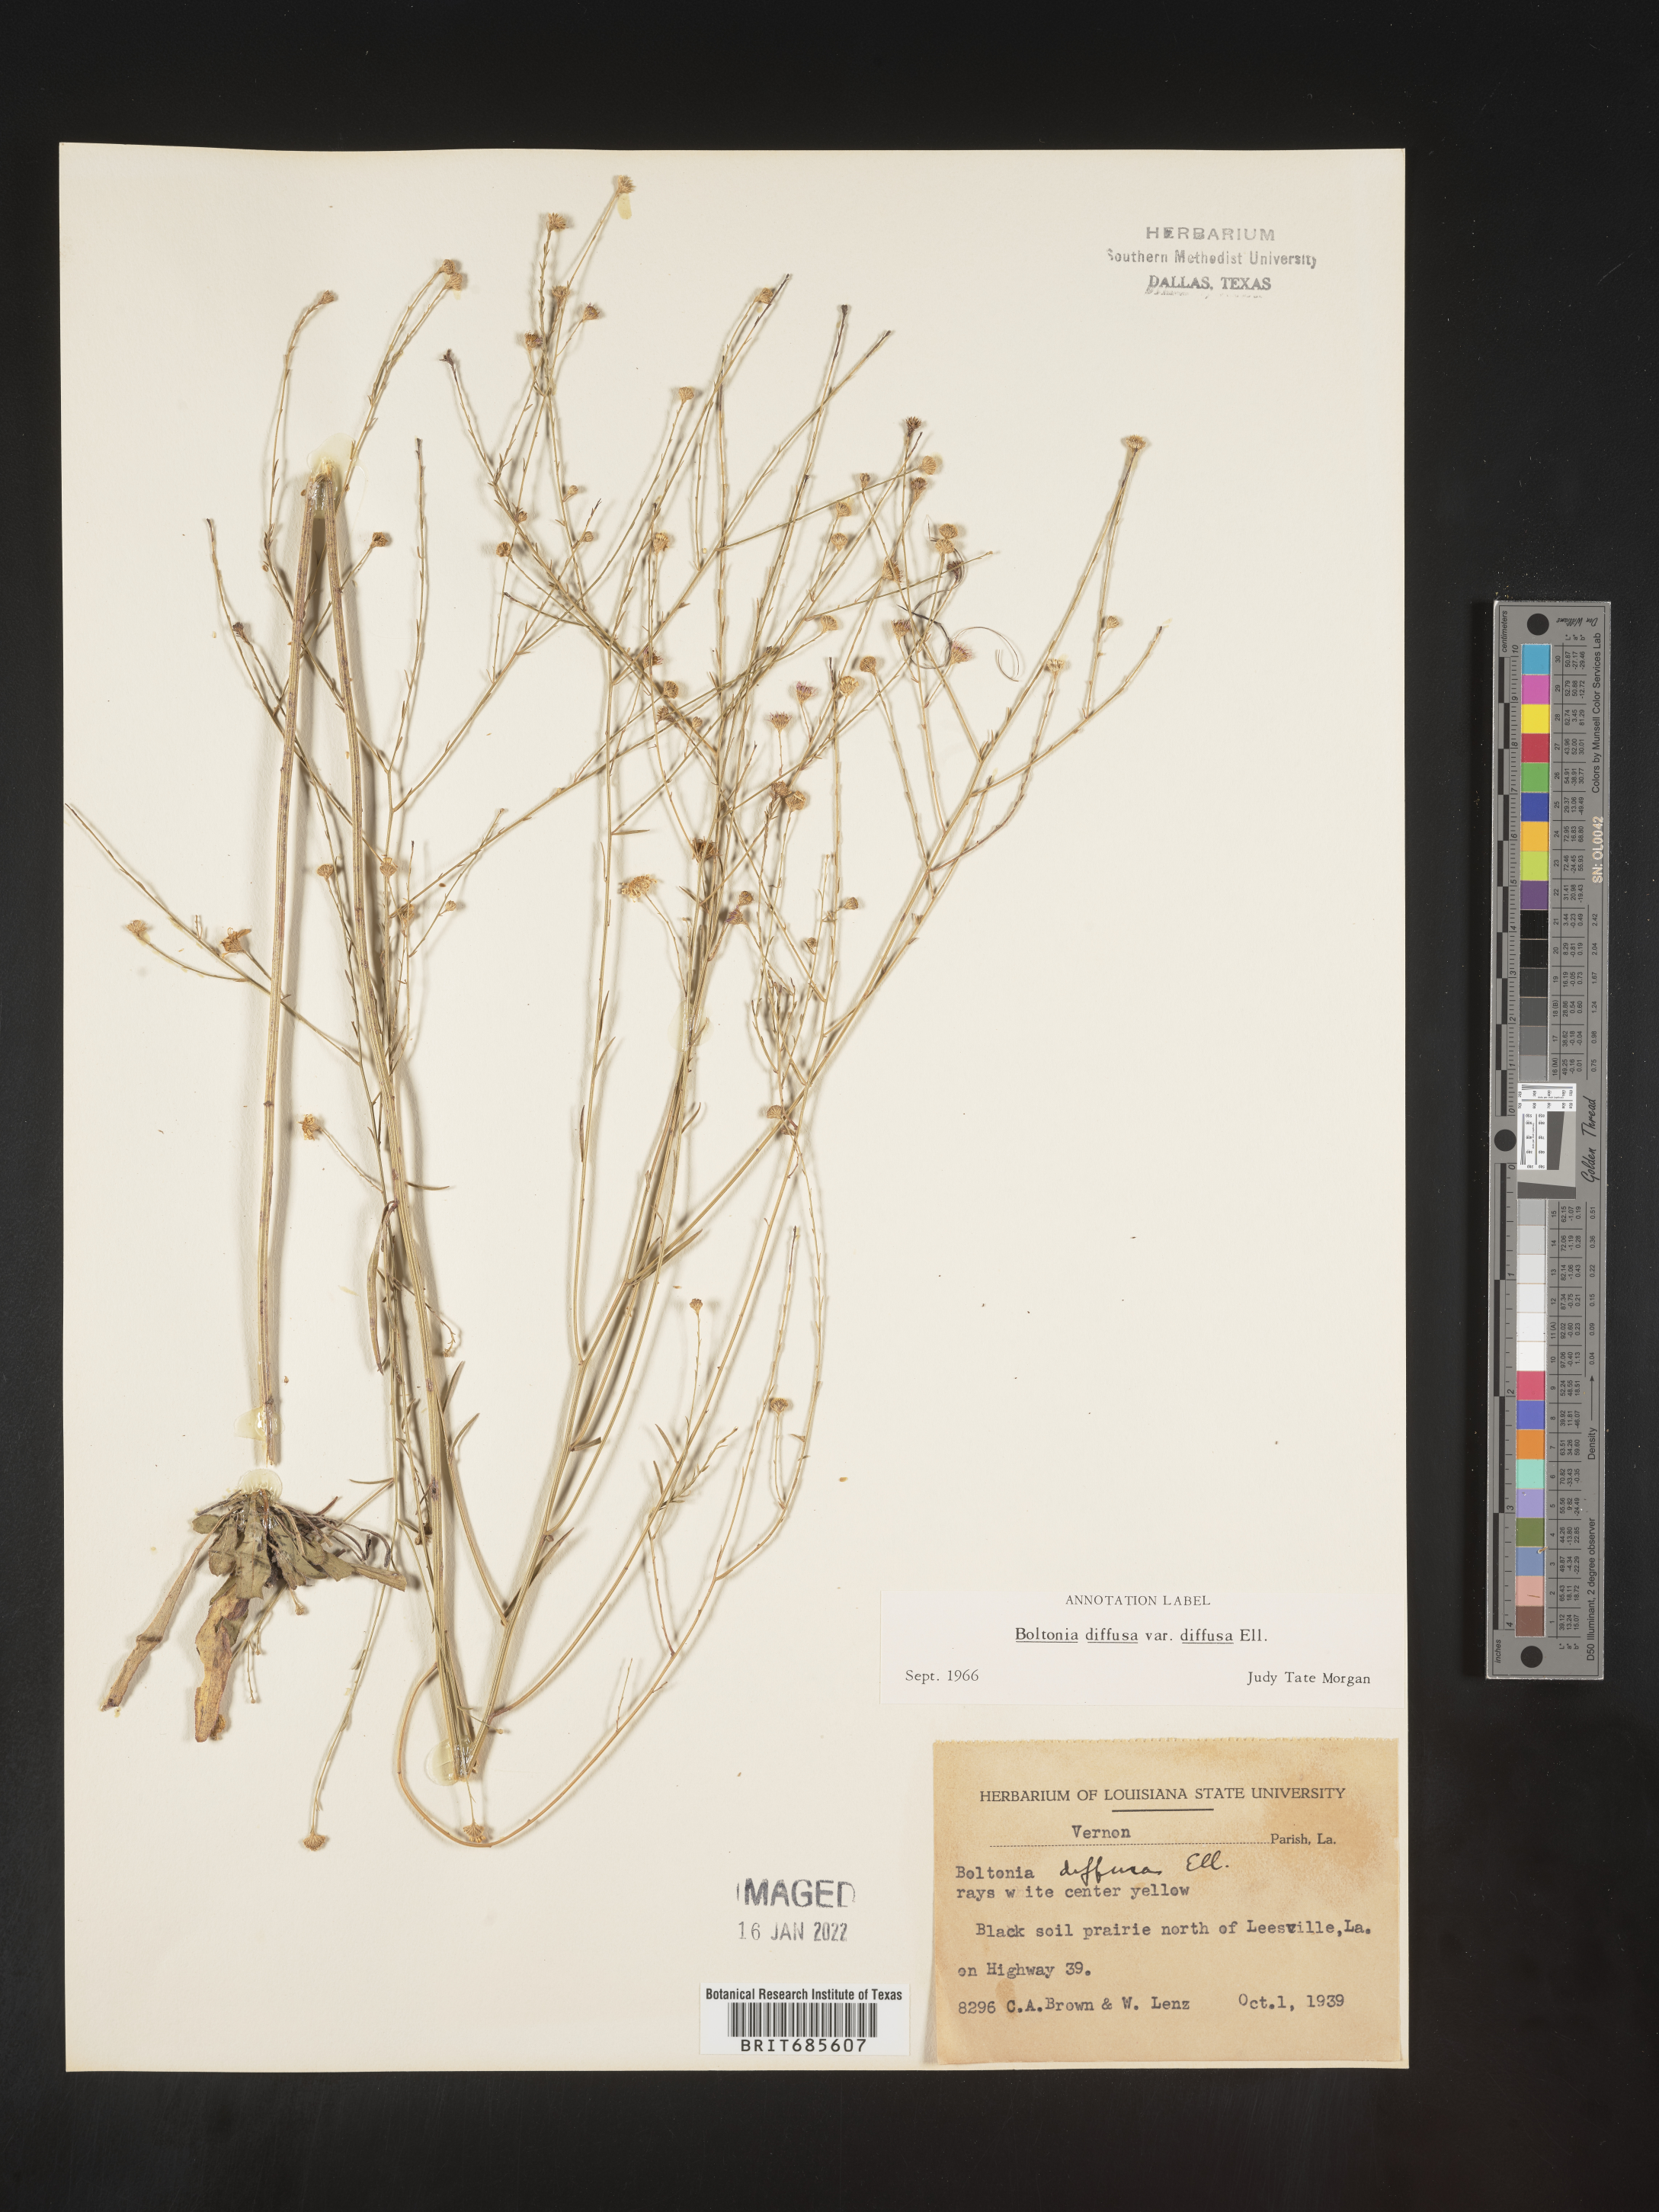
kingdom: Plantae
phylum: Tracheophyta
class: Magnoliopsida
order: Asterales
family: Asteraceae
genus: Boltonia
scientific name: Boltonia diffusa
